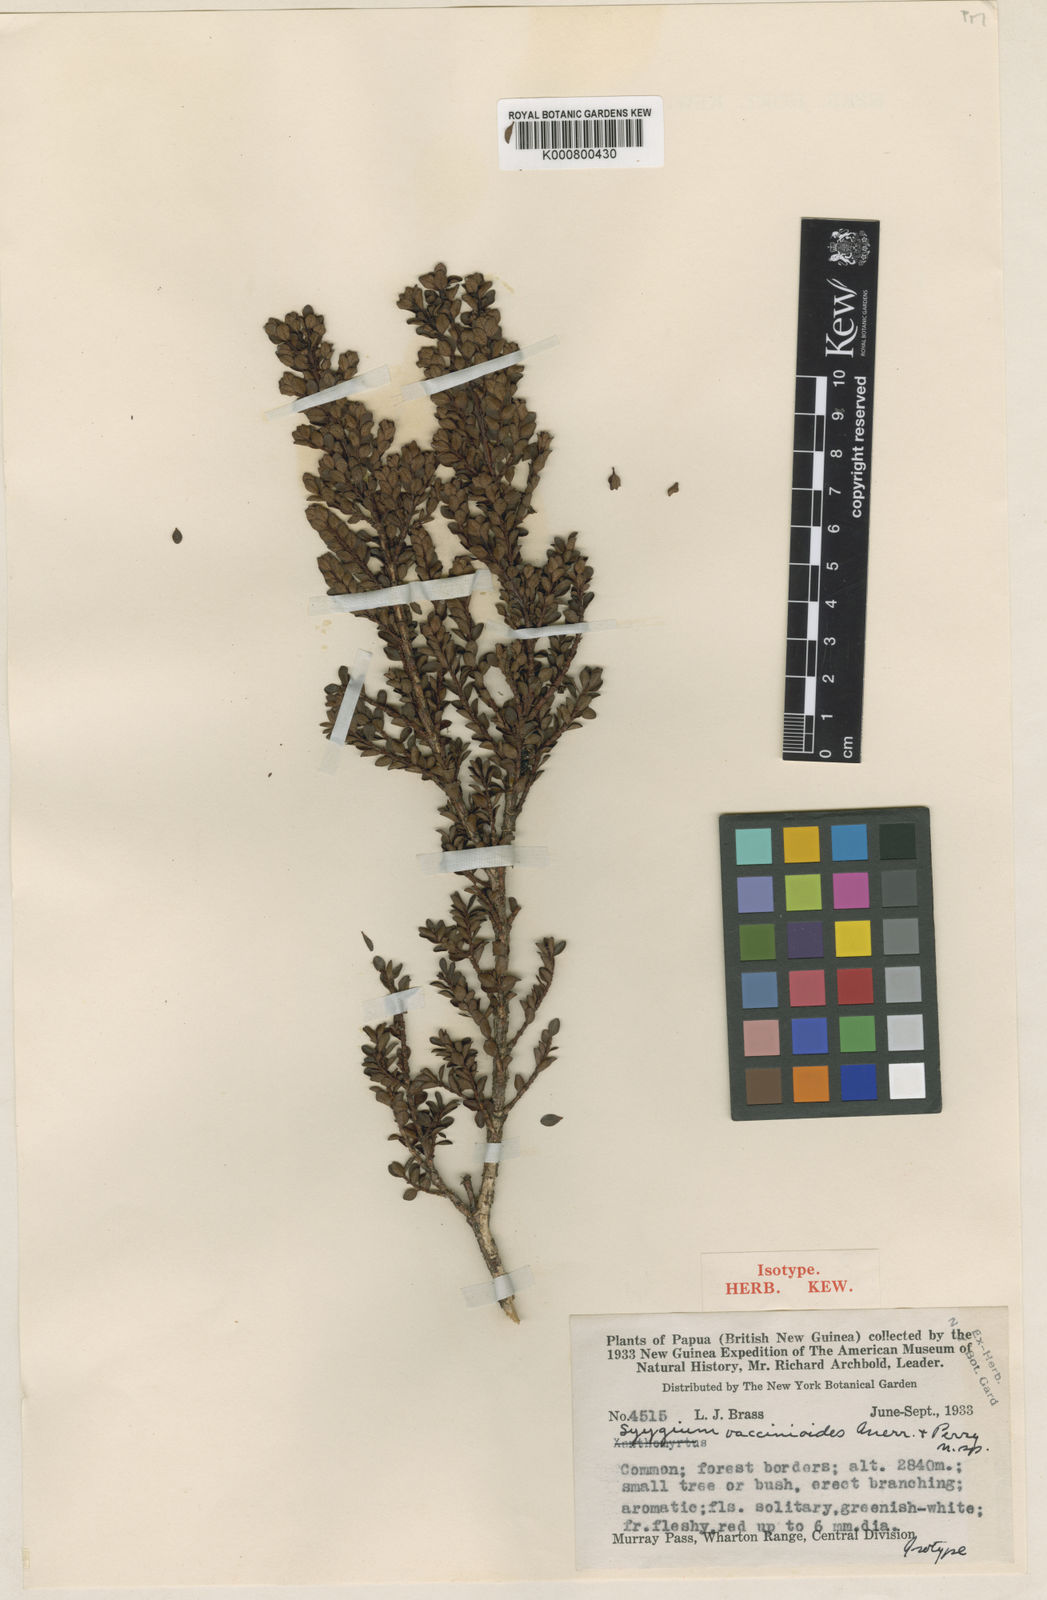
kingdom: Plantae
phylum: Tracheophyta
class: Magnoliopsida
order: Myrtales
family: Myrtaceae
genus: Syzygium
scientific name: Syzygium alatum
